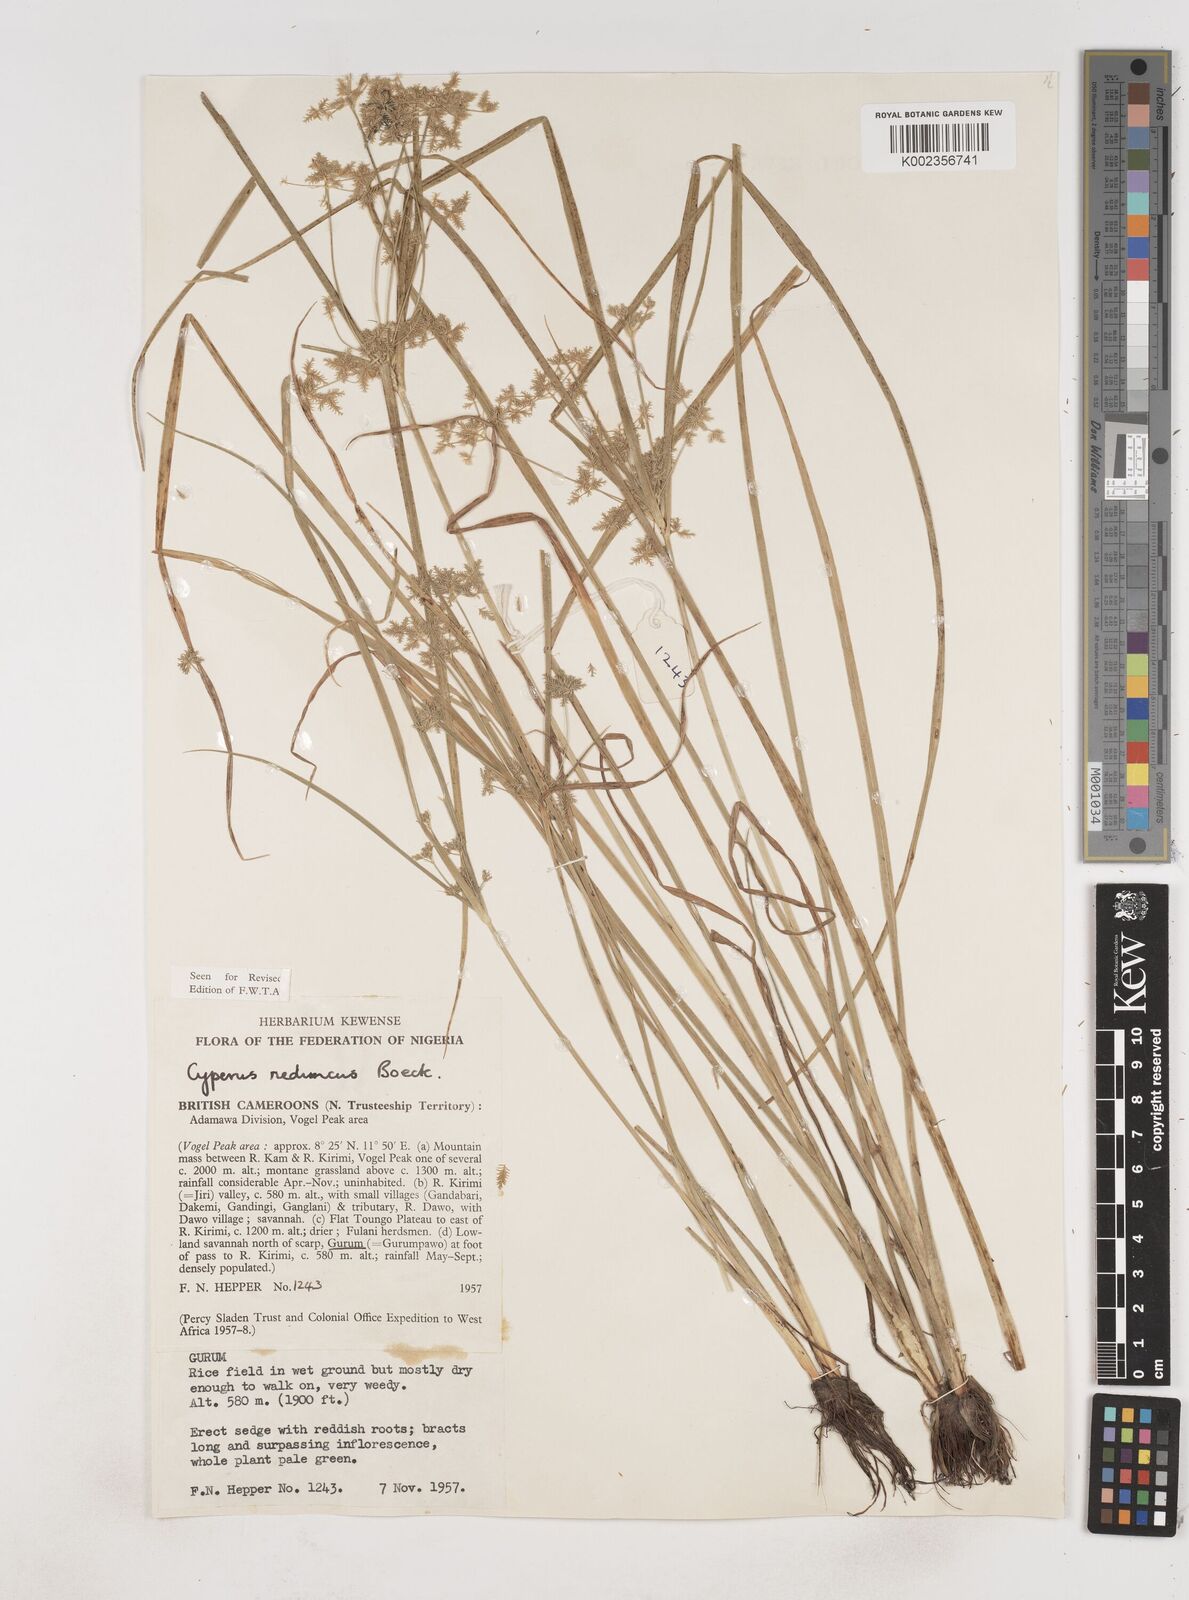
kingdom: Plantae
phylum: Tracheophyta
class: Liliopsida
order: Poales
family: Cyperaceae
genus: Cyperus
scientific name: Cyperus reduncus
